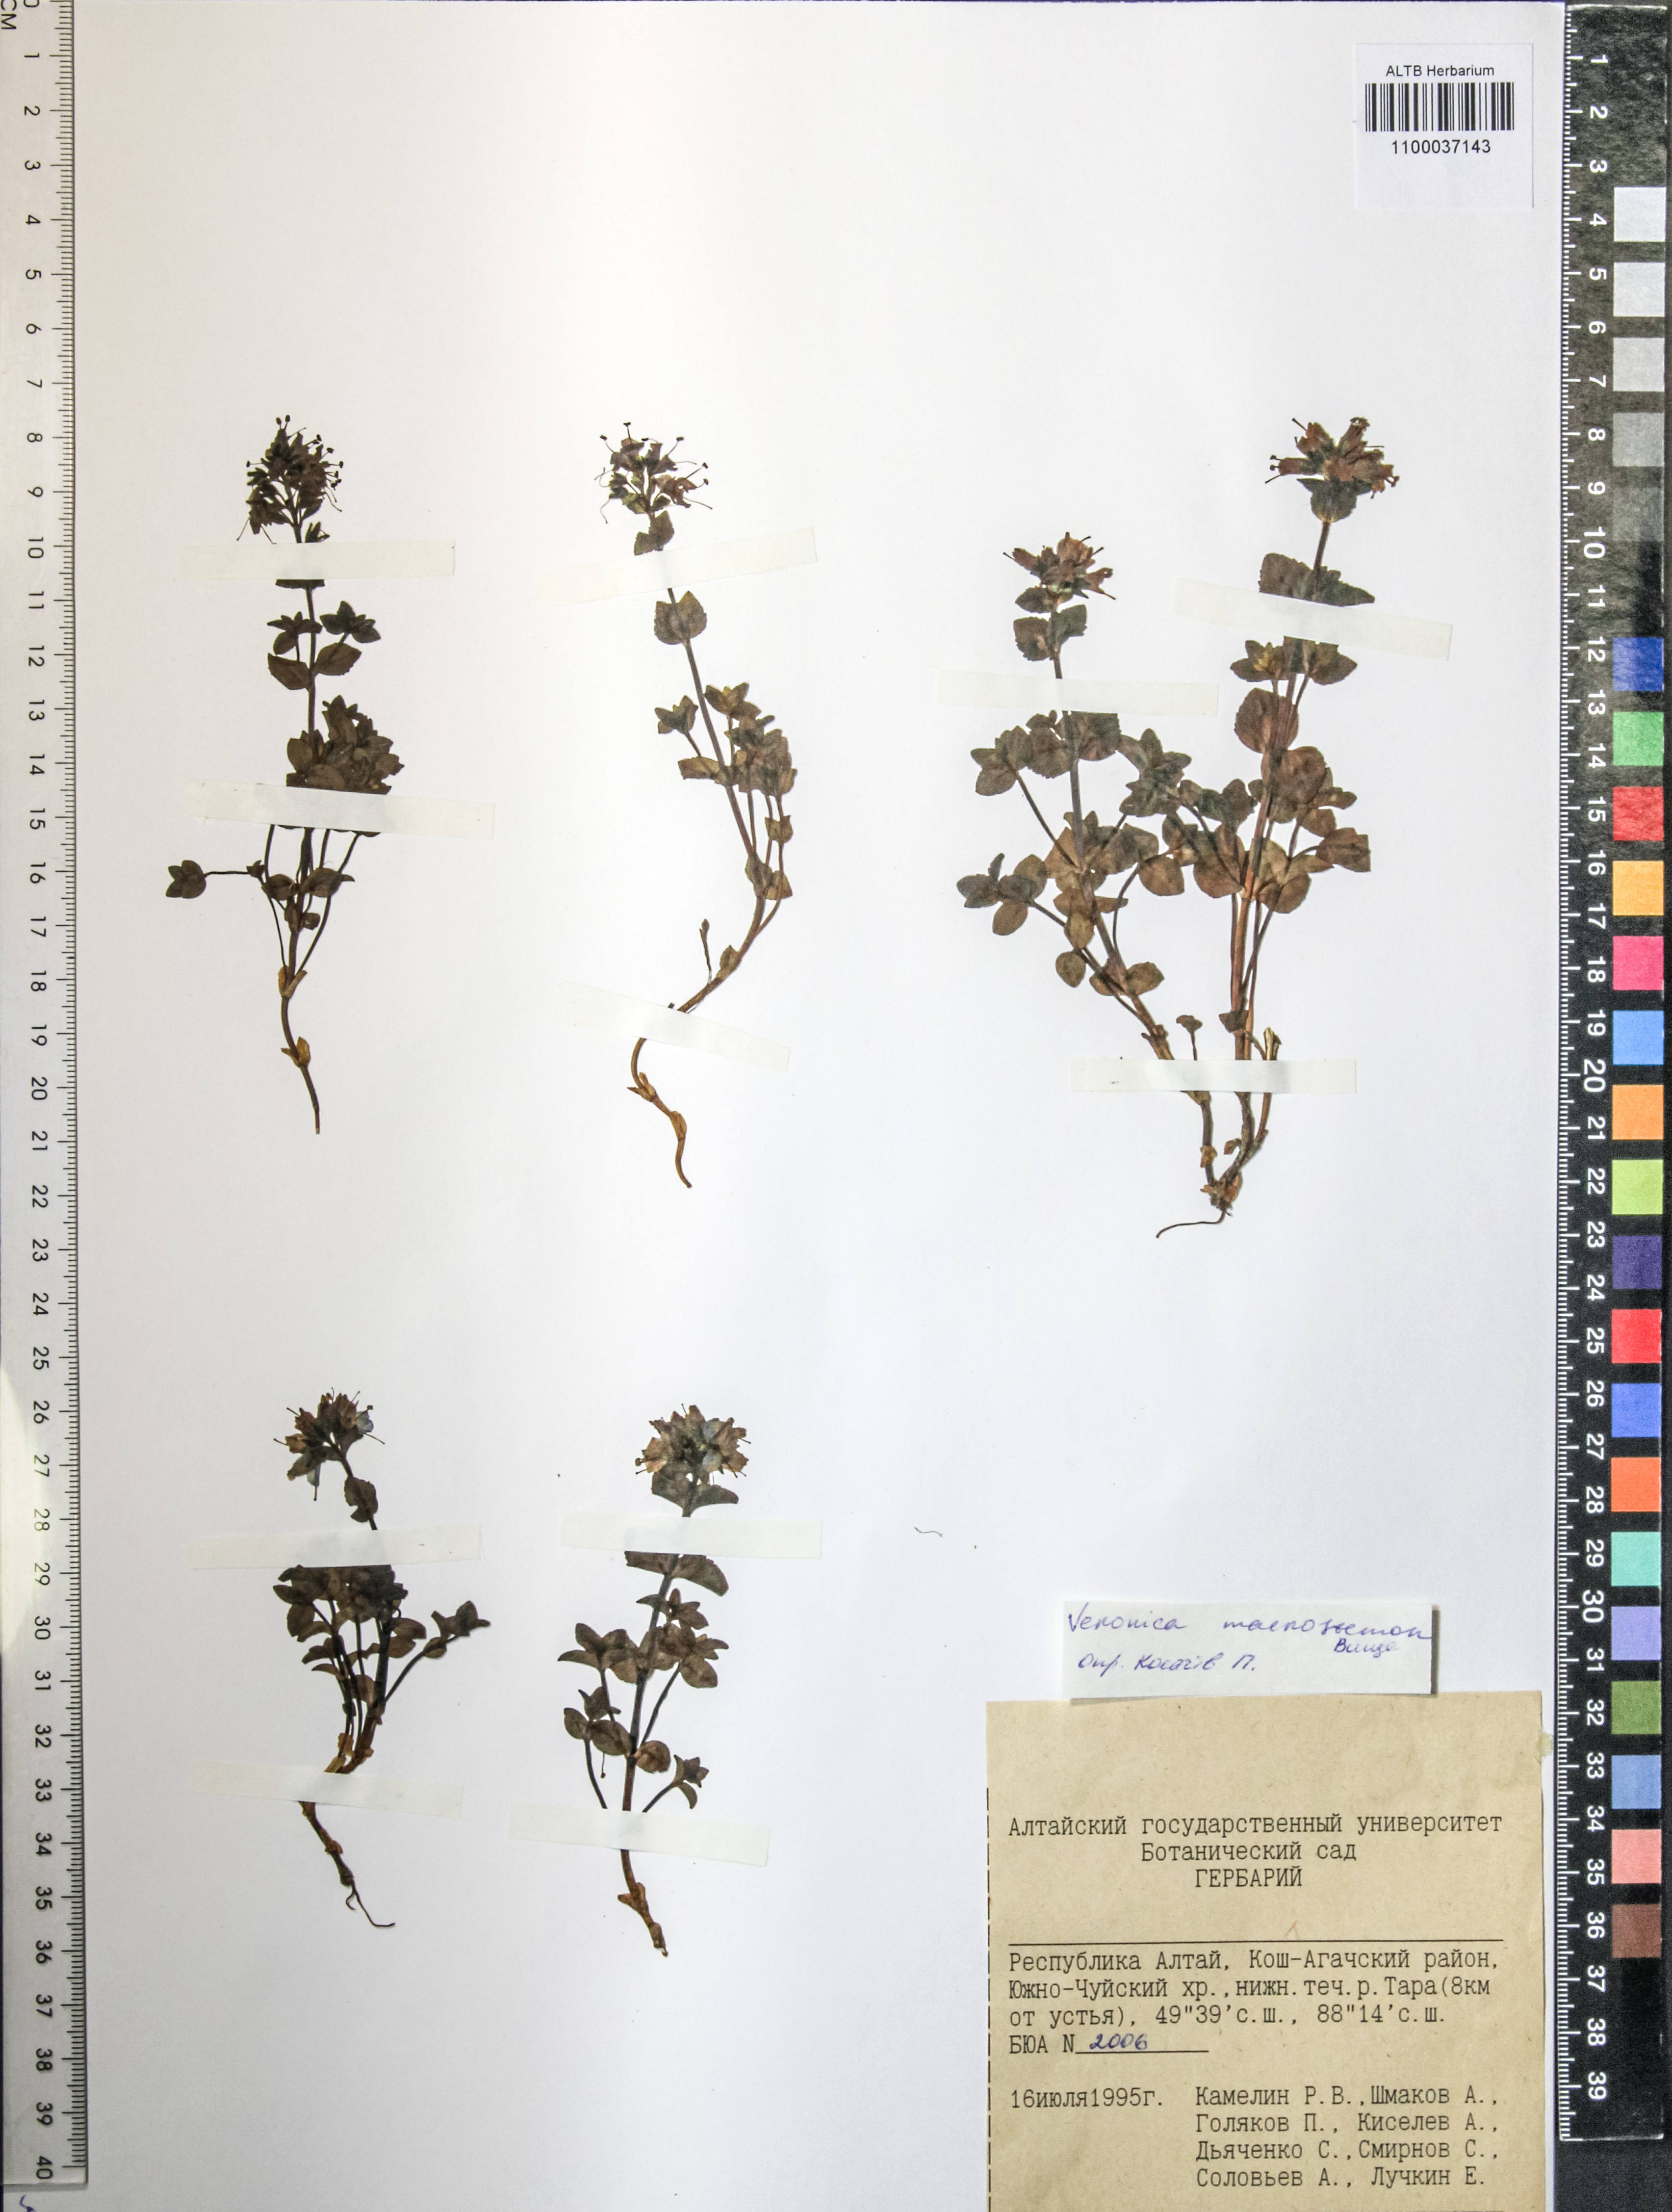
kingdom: Plantae
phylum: Tracheophyta
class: Magnoliopsida
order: Lamiales
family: Plantaginaceae
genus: Veronica
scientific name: Veronica macrostemon
